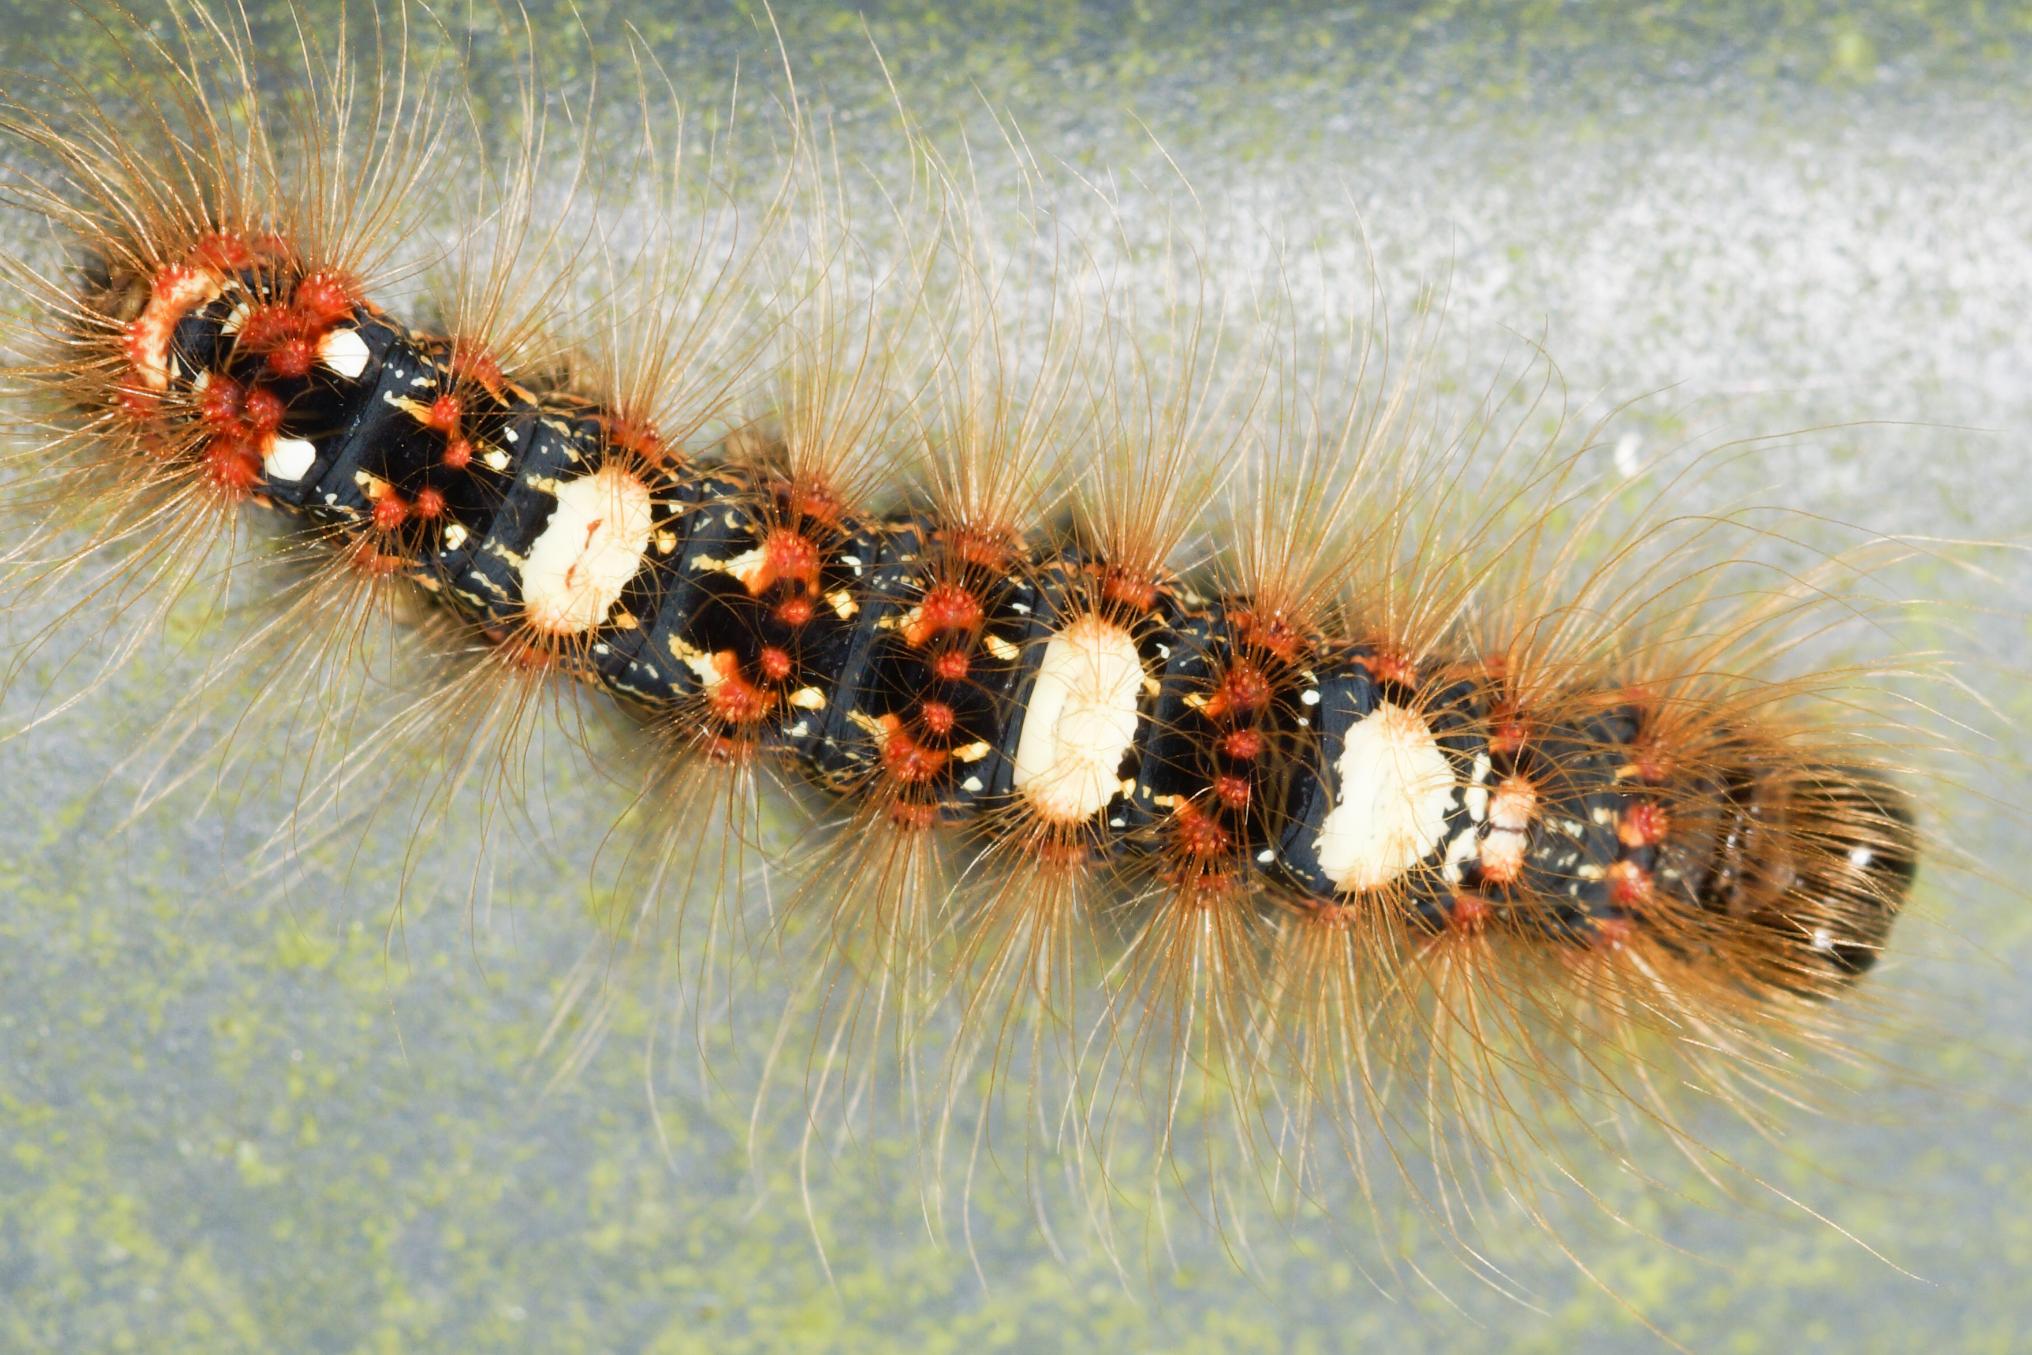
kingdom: Animalia
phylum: Arthropoda
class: Insecta
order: Lepidoptera
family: Noctuidae
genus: Moma
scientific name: Moma alpium
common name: Marmorugle
